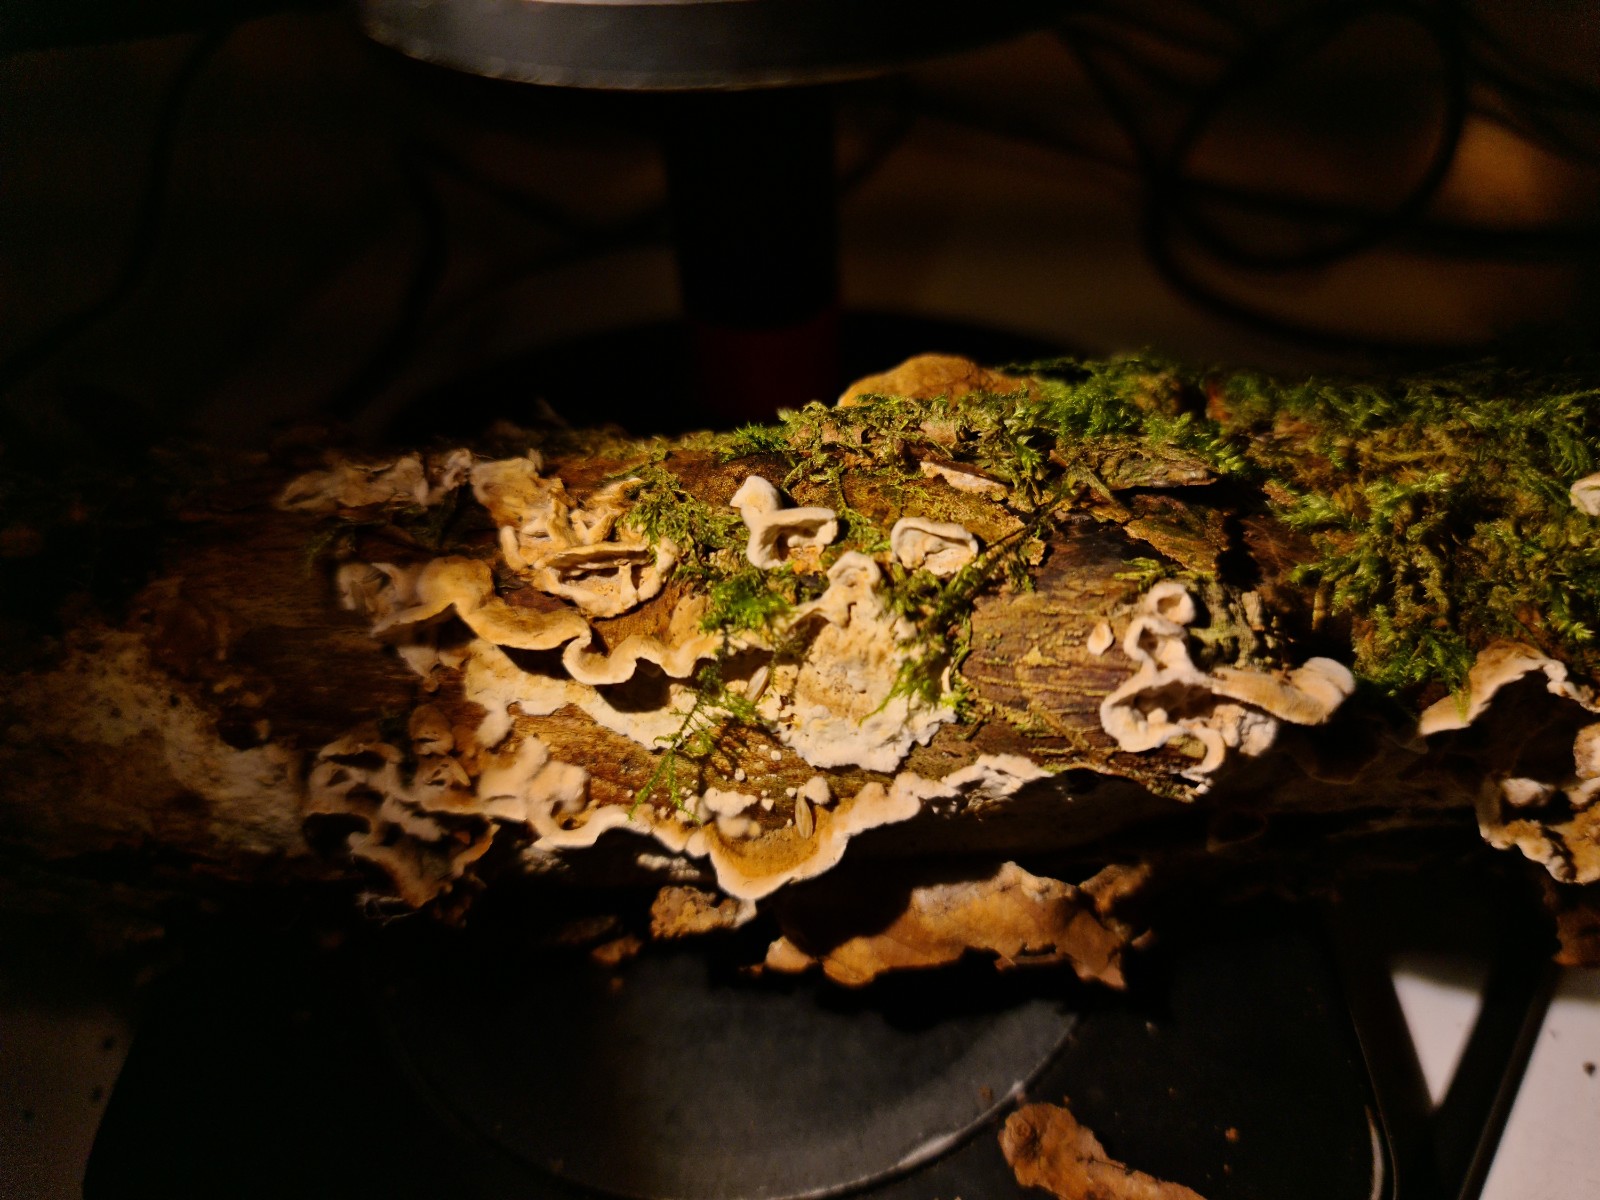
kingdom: Fungi
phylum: Basidiomycota
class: Agaricomycetes
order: Russulales
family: Hericiaceae
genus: Laxitextum
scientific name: Laxitextum bicolor
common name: tvefarvet filtskind
